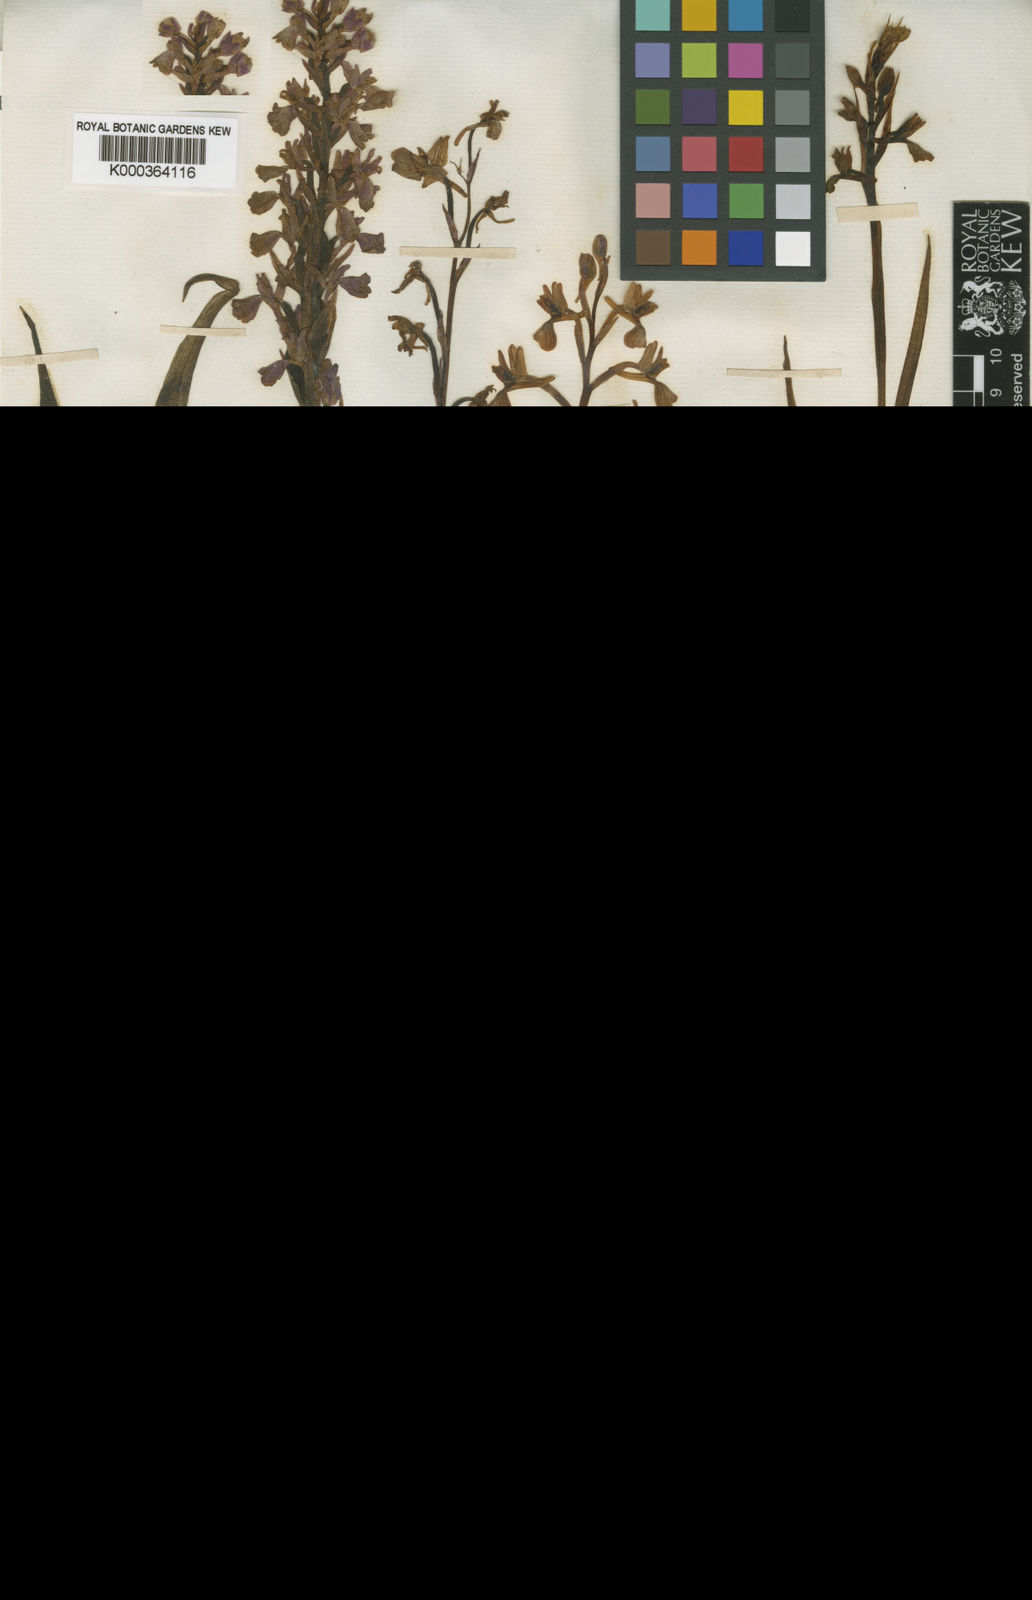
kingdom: Plantae
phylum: Tracheophyta
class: Liliopsida
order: Asparagales
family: Orchidaceae
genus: Anacamptis
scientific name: Anacamptis laxiflora
